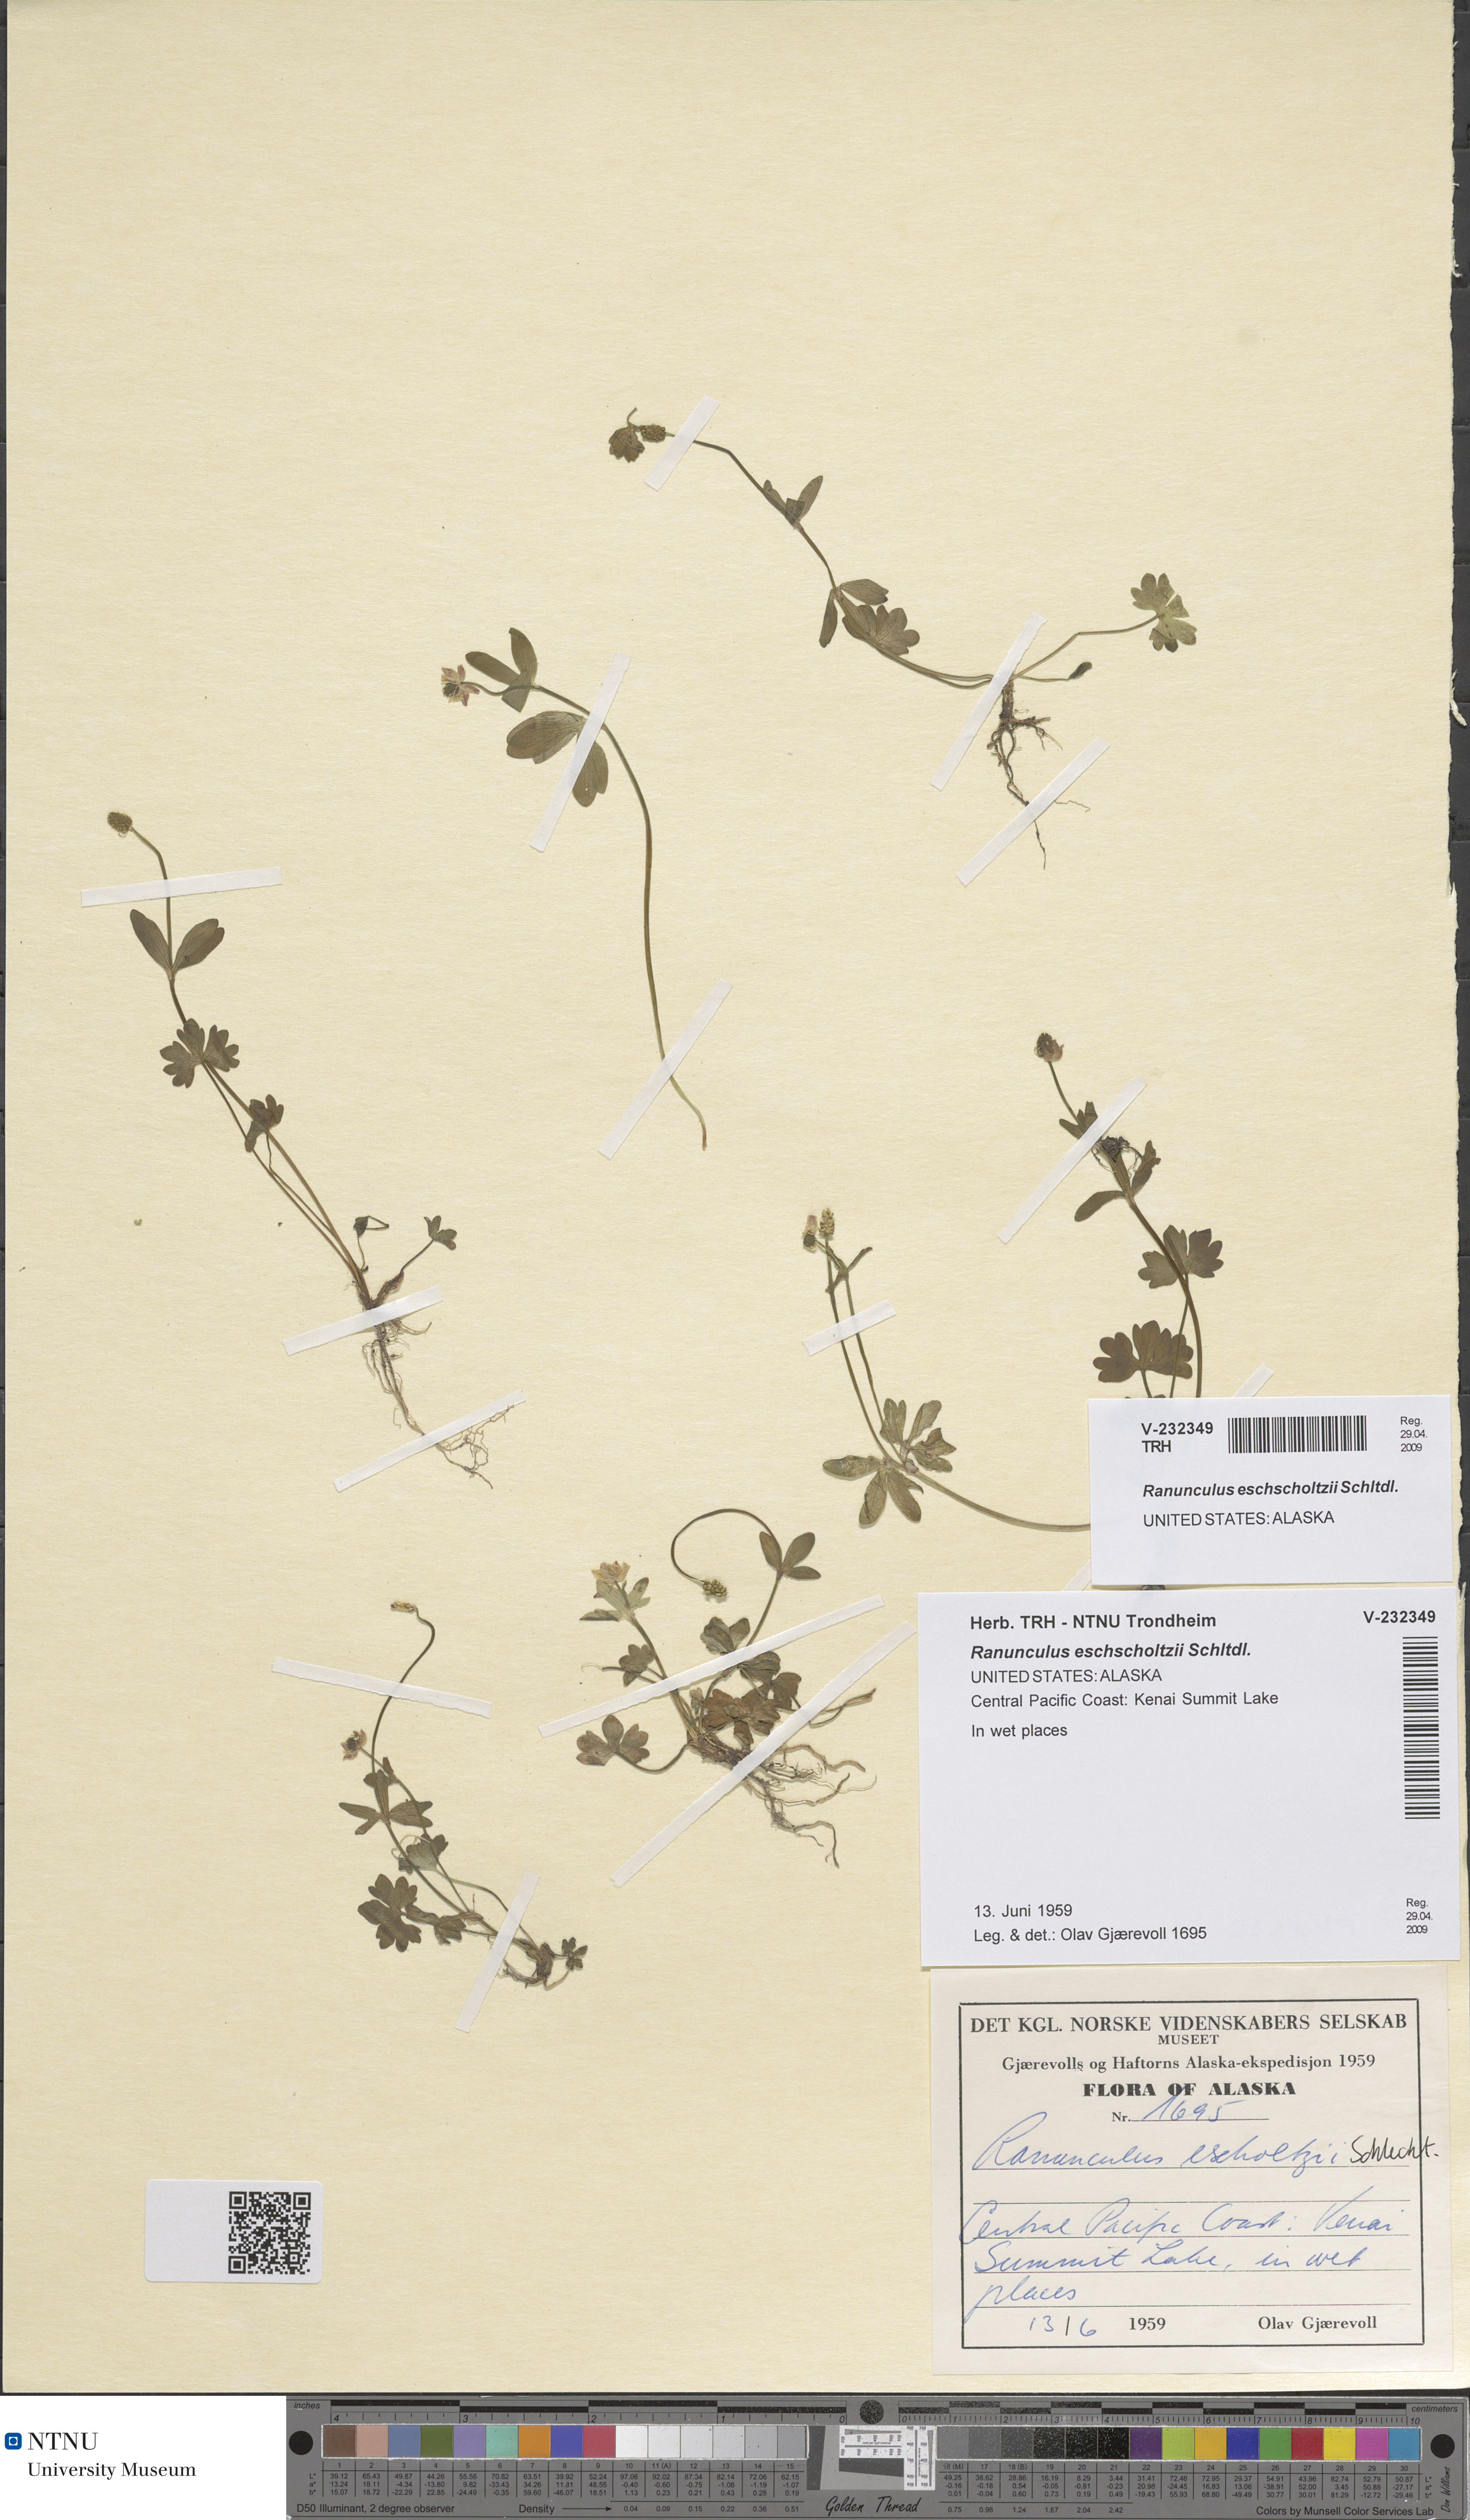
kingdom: Plantae
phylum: Tracheophyta
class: Magnoliopsida
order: Ranunculales
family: Ranunculaceae
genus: Ranunculus
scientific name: Ranunculus eschscholtzii
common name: Eschscholtz's buttercup
